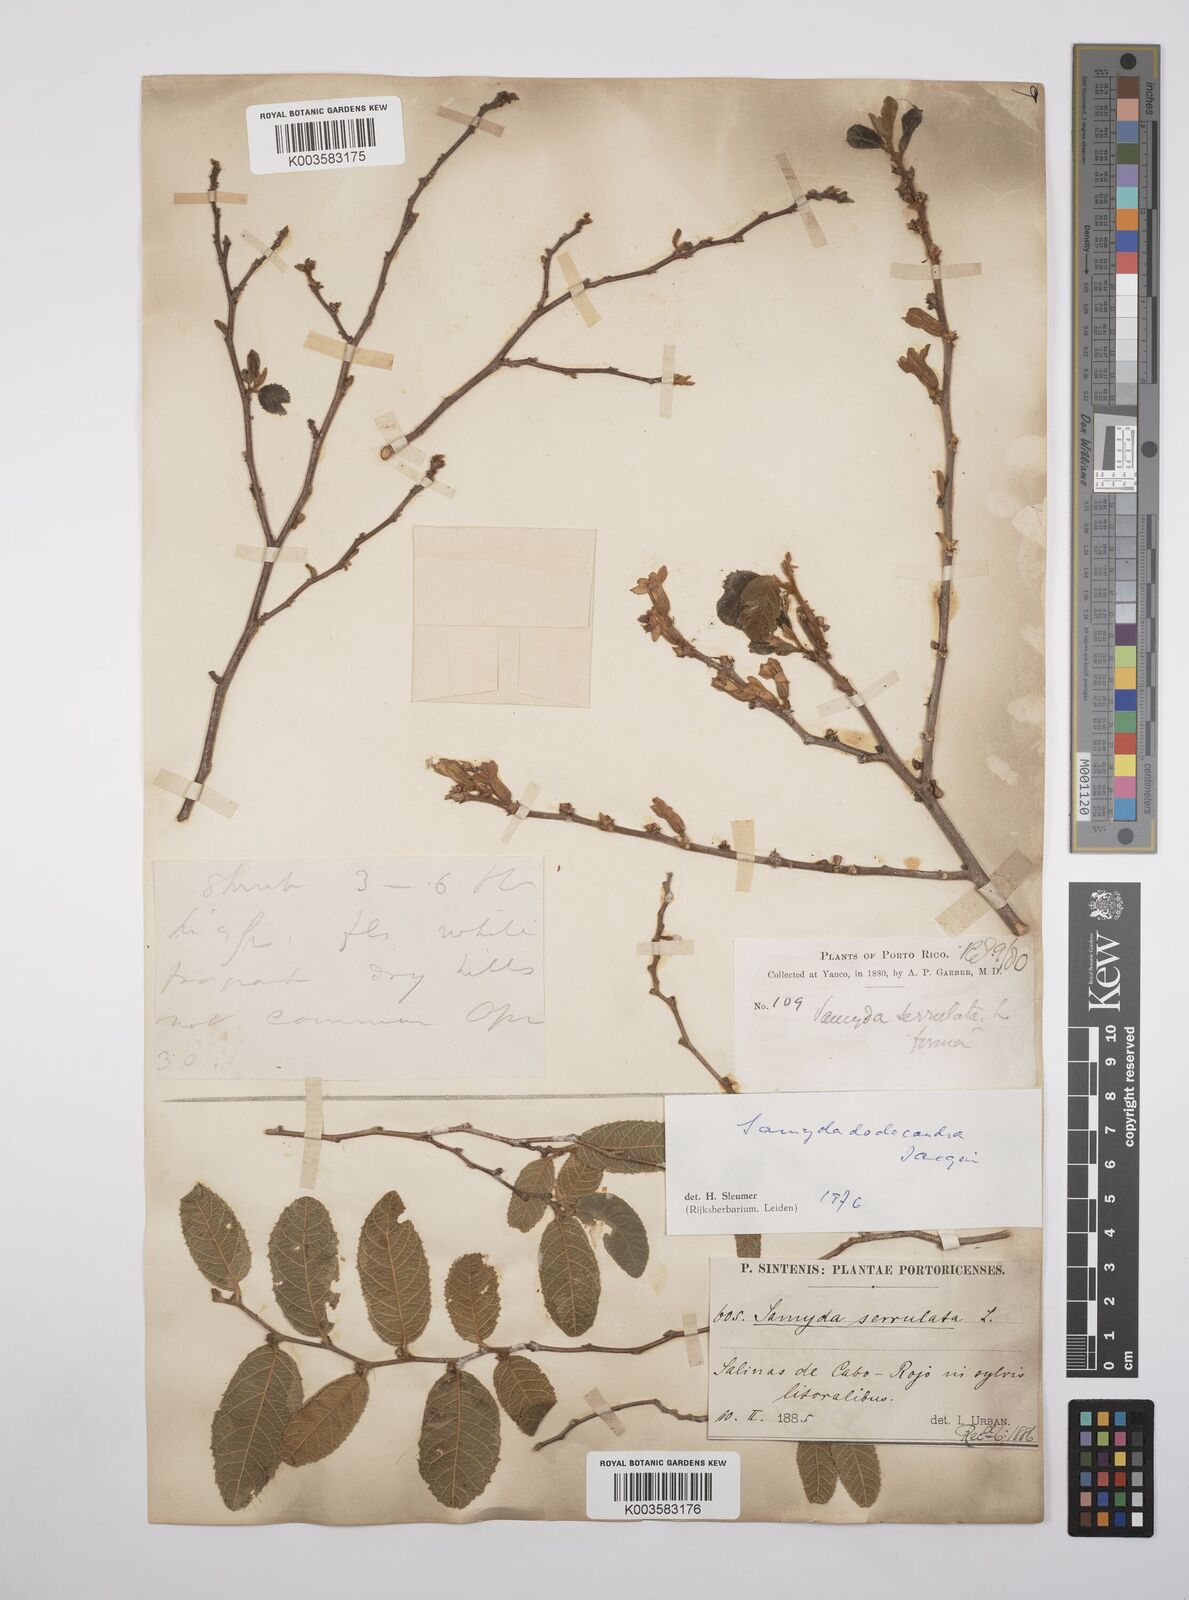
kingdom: Plantae
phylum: Tracheophyta
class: Magnoliopsida
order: Malpighiales
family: Salicaceae
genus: Casearia
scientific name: Casearia dodecandra
